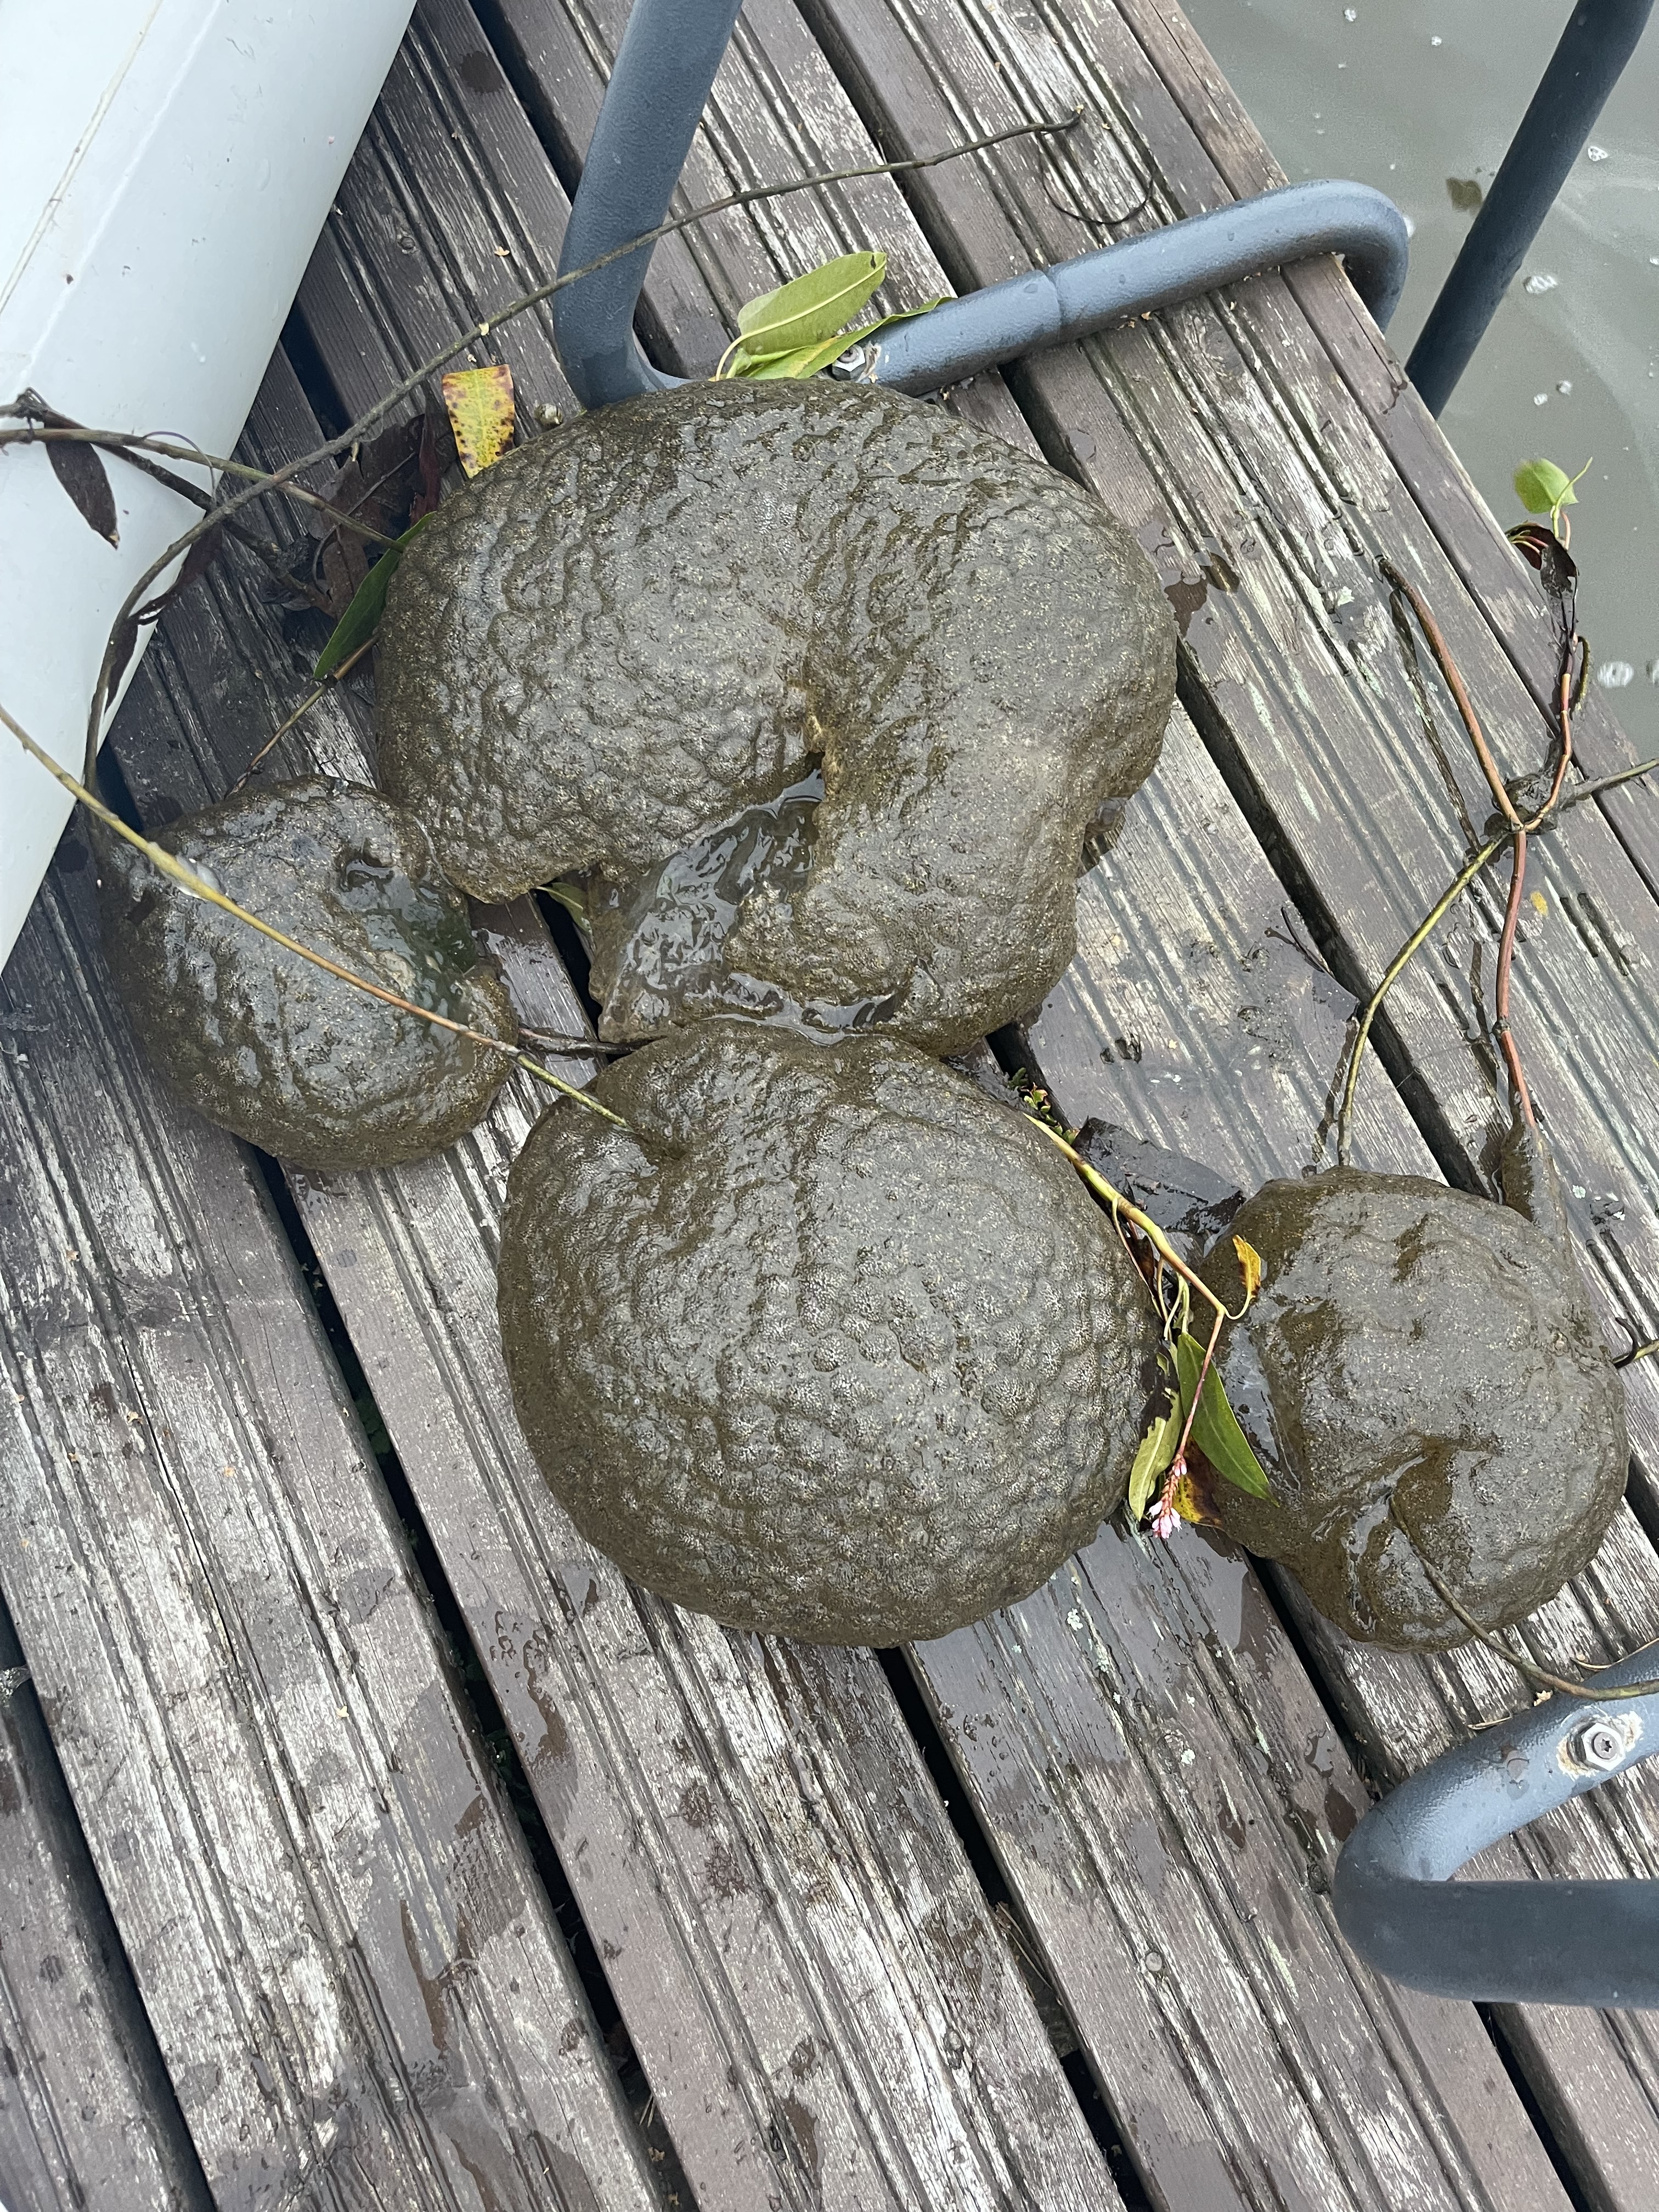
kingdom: Animalia
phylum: Bryozoa
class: Phylactolaemata
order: Plumatellida
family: Pectinatellidae
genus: Pectinatella
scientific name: Pectinatella magnifica
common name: Magnificent bryozoan
